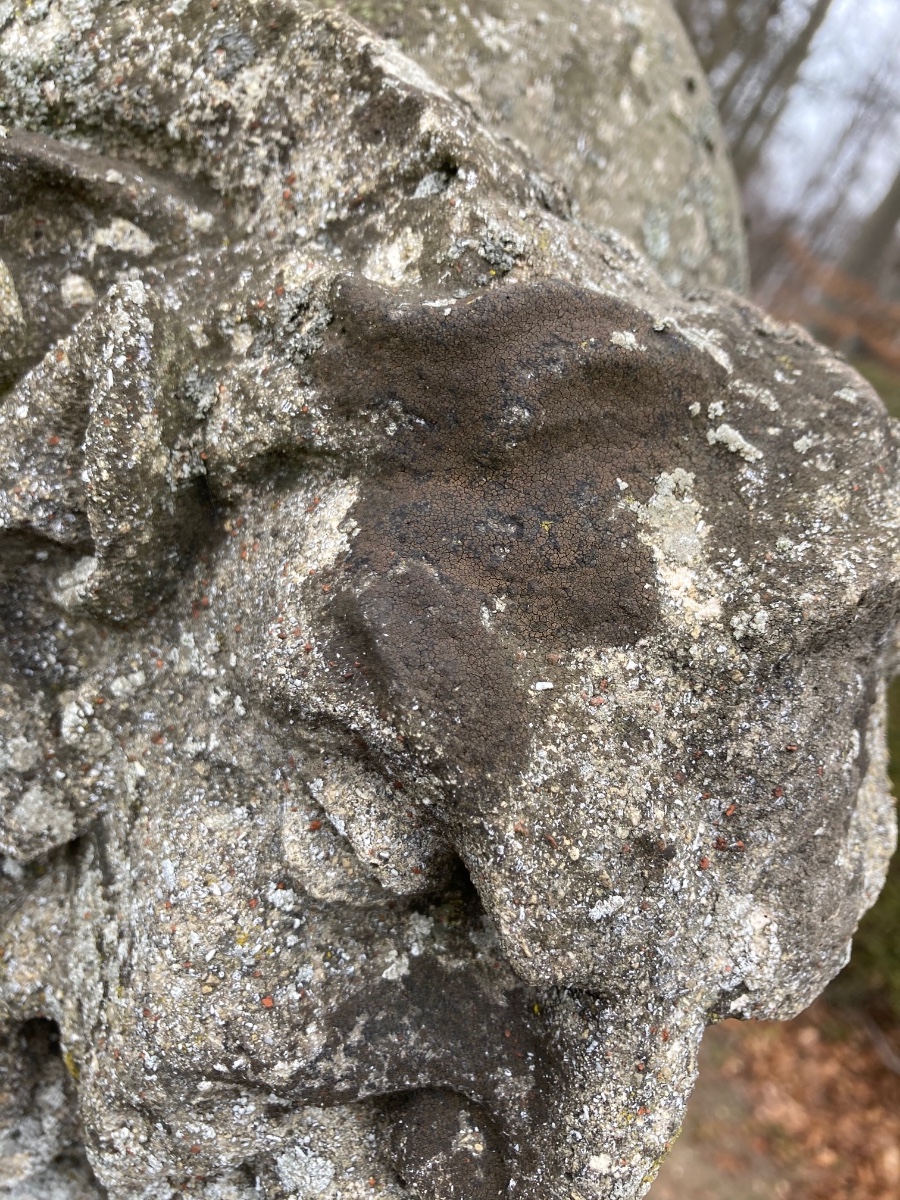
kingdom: Fungi
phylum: Ascomycota
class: Eurotiomycetes
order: Verrucariales
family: Verrucariaceae
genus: Verrucaria
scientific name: Verrucaria nigrescens
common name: sortbrun vortelav
